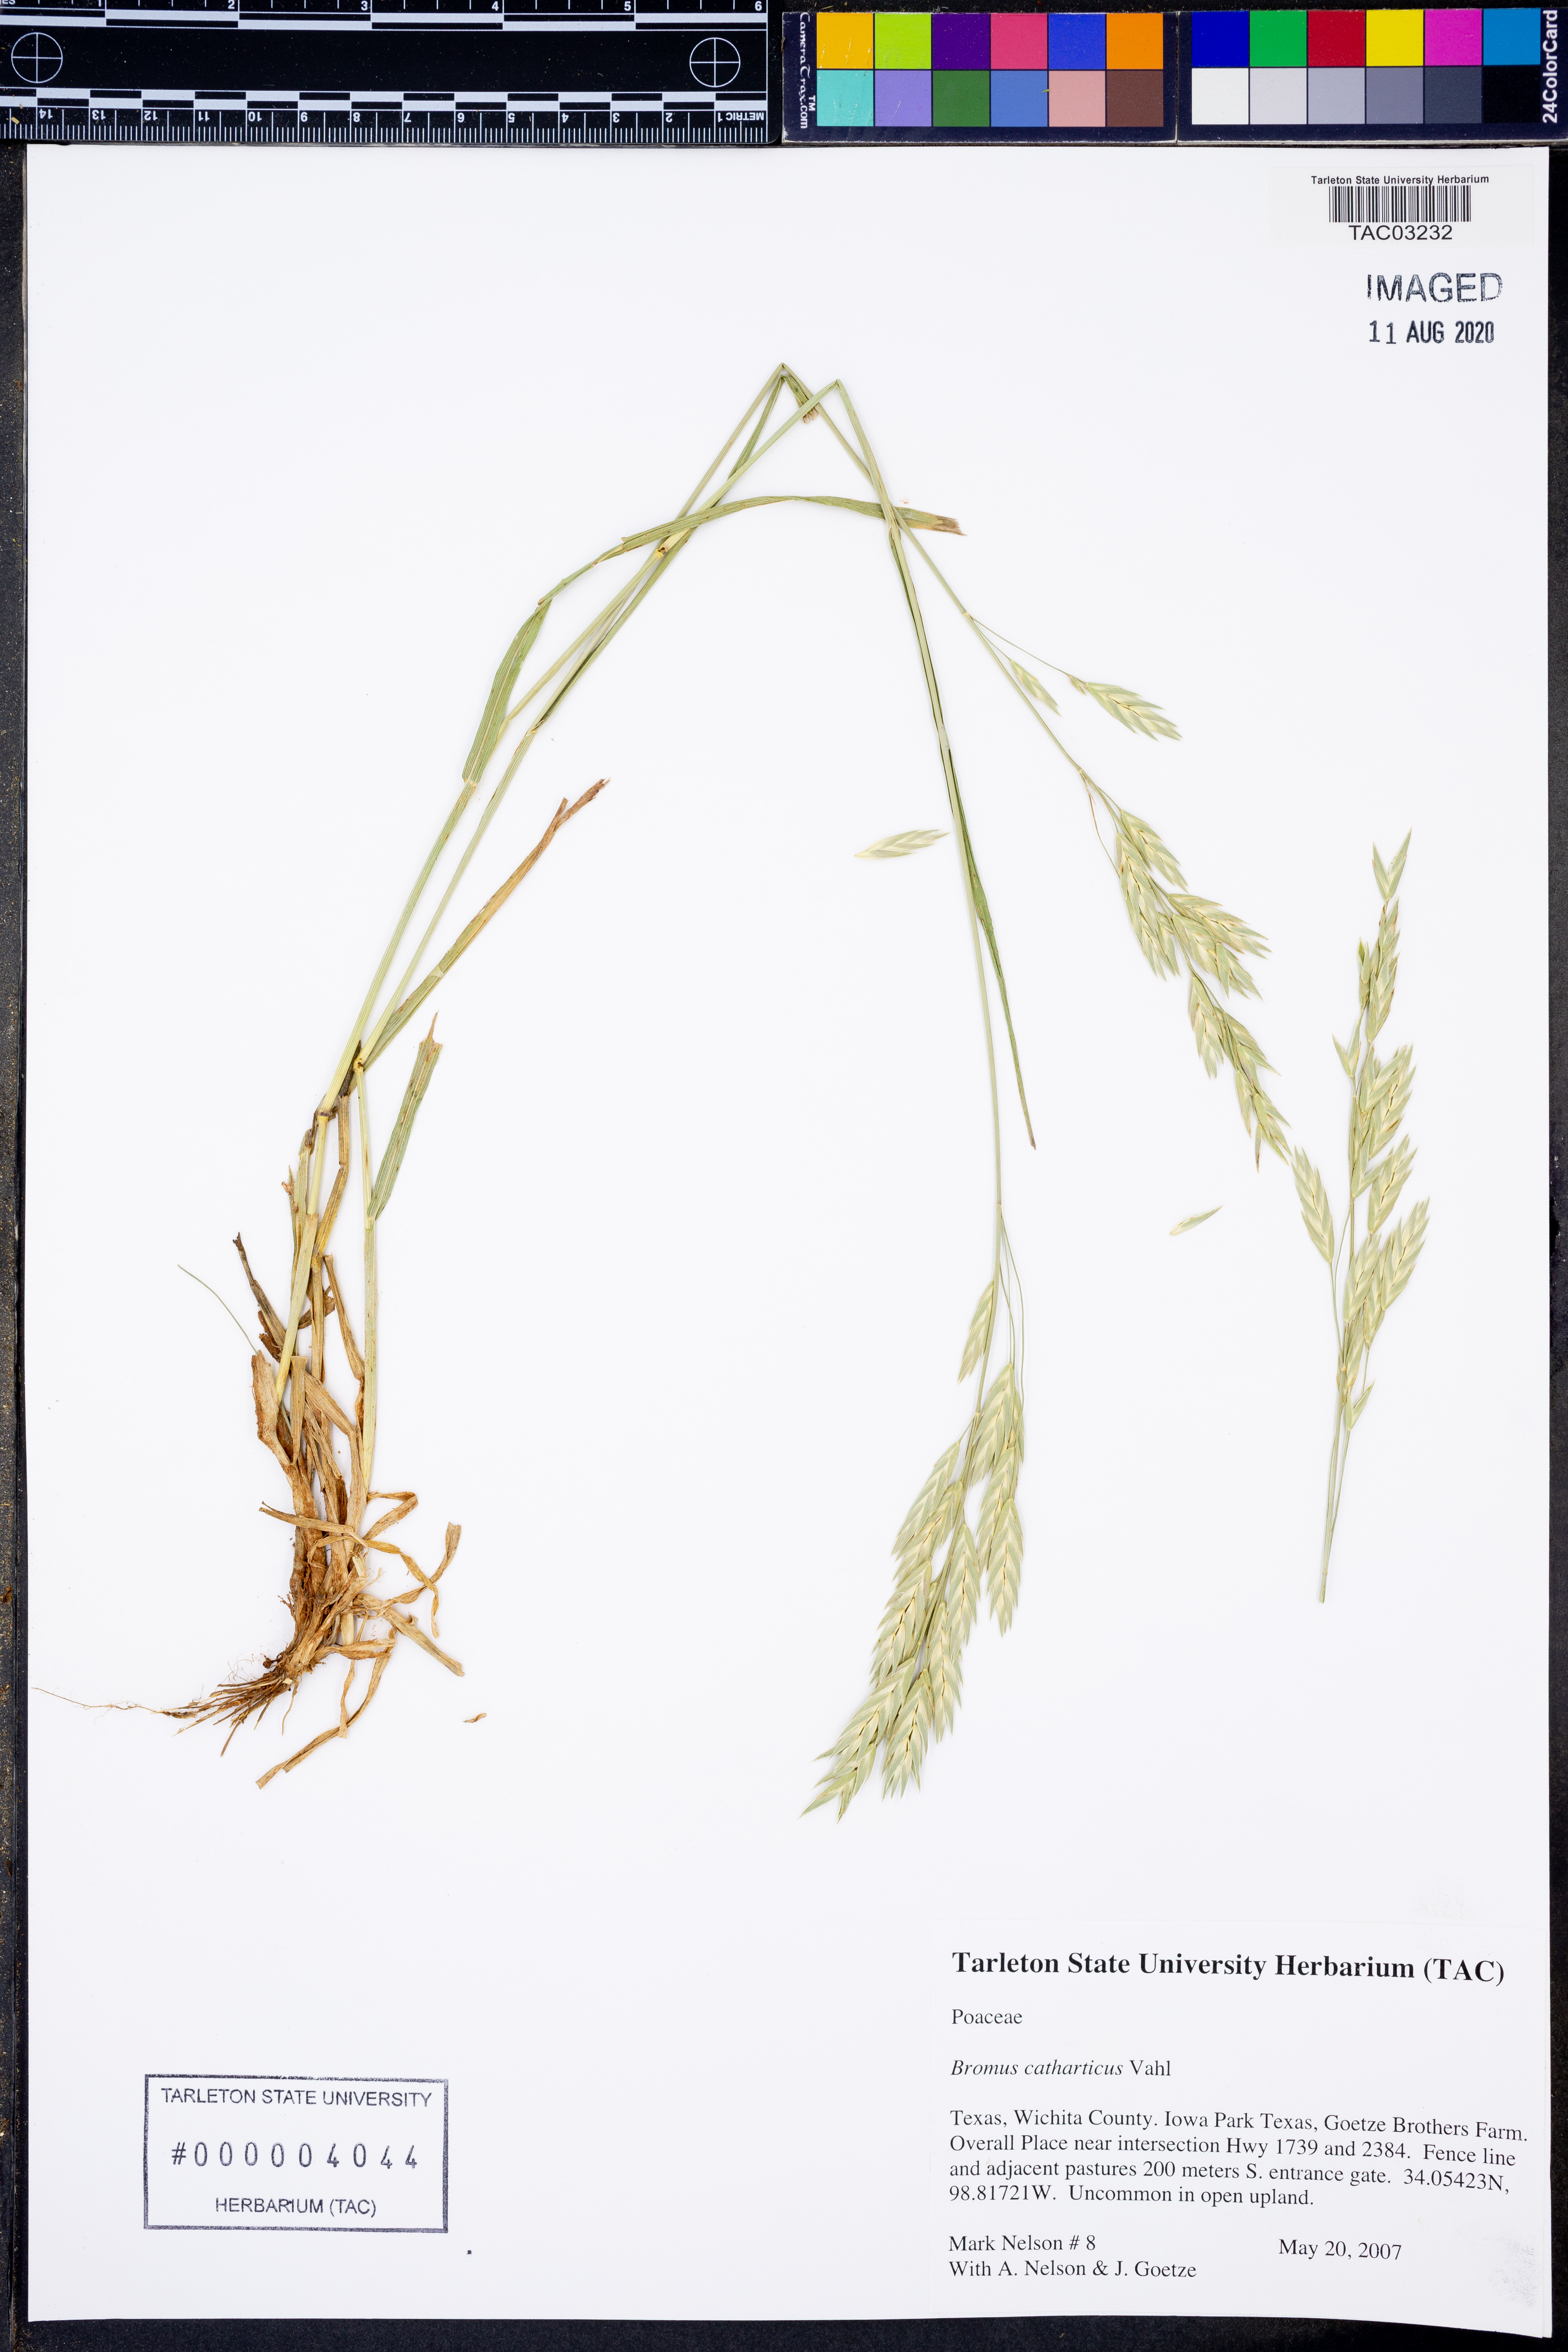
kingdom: Plantae
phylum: Tracheophyta
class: Liliopsida
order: Poales
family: Poaceae
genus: Bromus
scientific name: Bromus catharticus
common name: Rescuegrass
